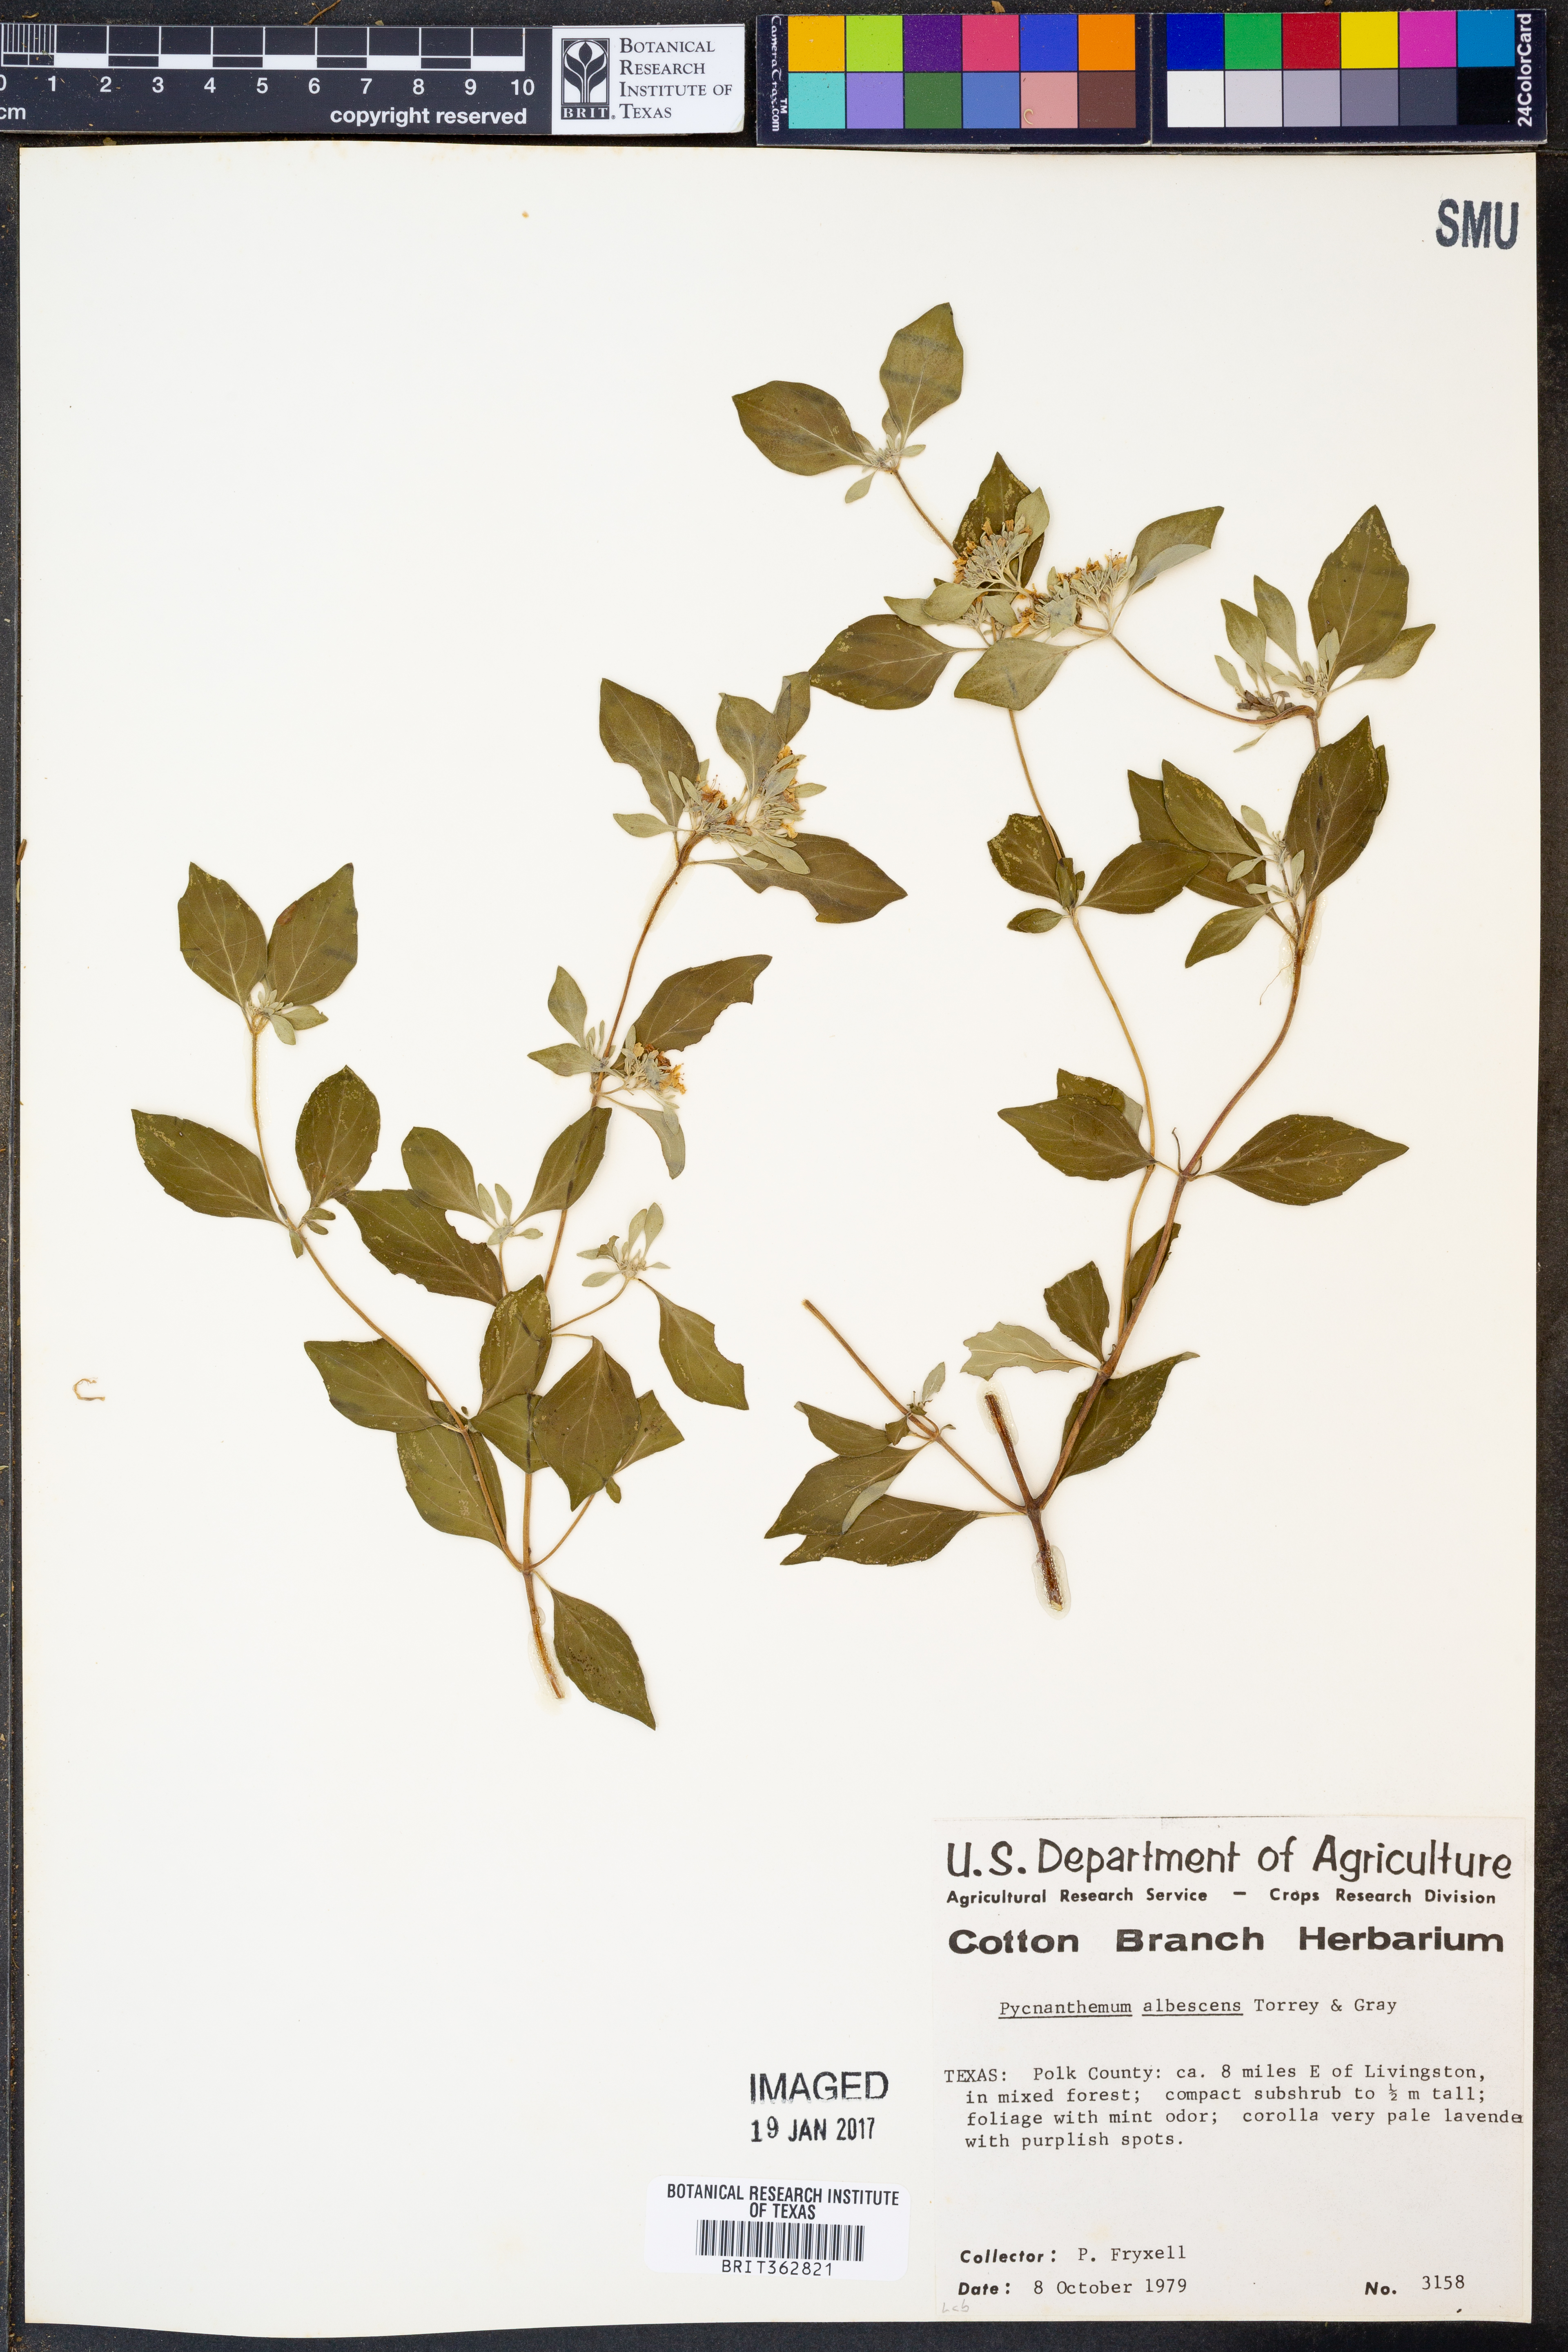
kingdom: Plantae
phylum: Tracheophyta
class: Magnoliopsida
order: Lamiales
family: Lamiaceae
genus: Pycnanthemum
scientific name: Pycnanthemum albescens
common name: White-leaf mountain-mint
